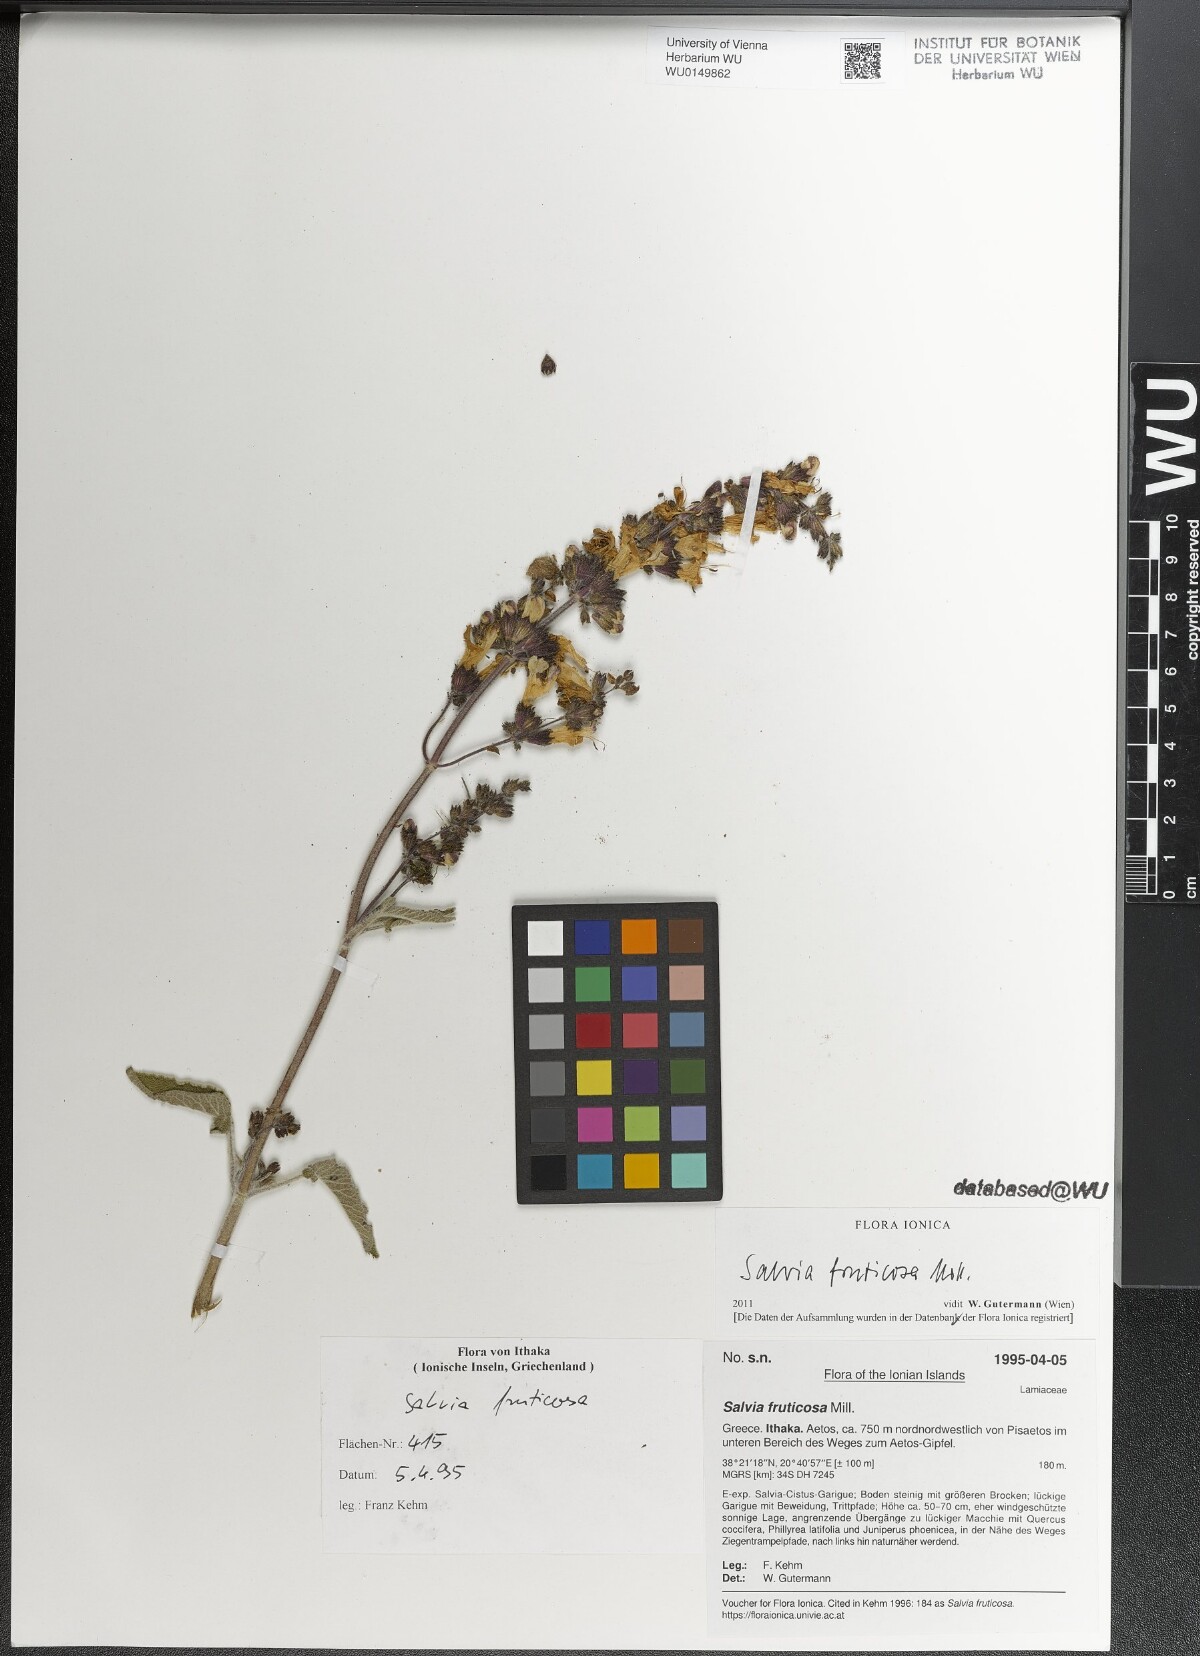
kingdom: Plantae
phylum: Tracheophyta
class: Magnoliopsida
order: Lamiales
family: Lamiaceae
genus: Salvia
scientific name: Salvia fruticosa
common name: Greek sage
